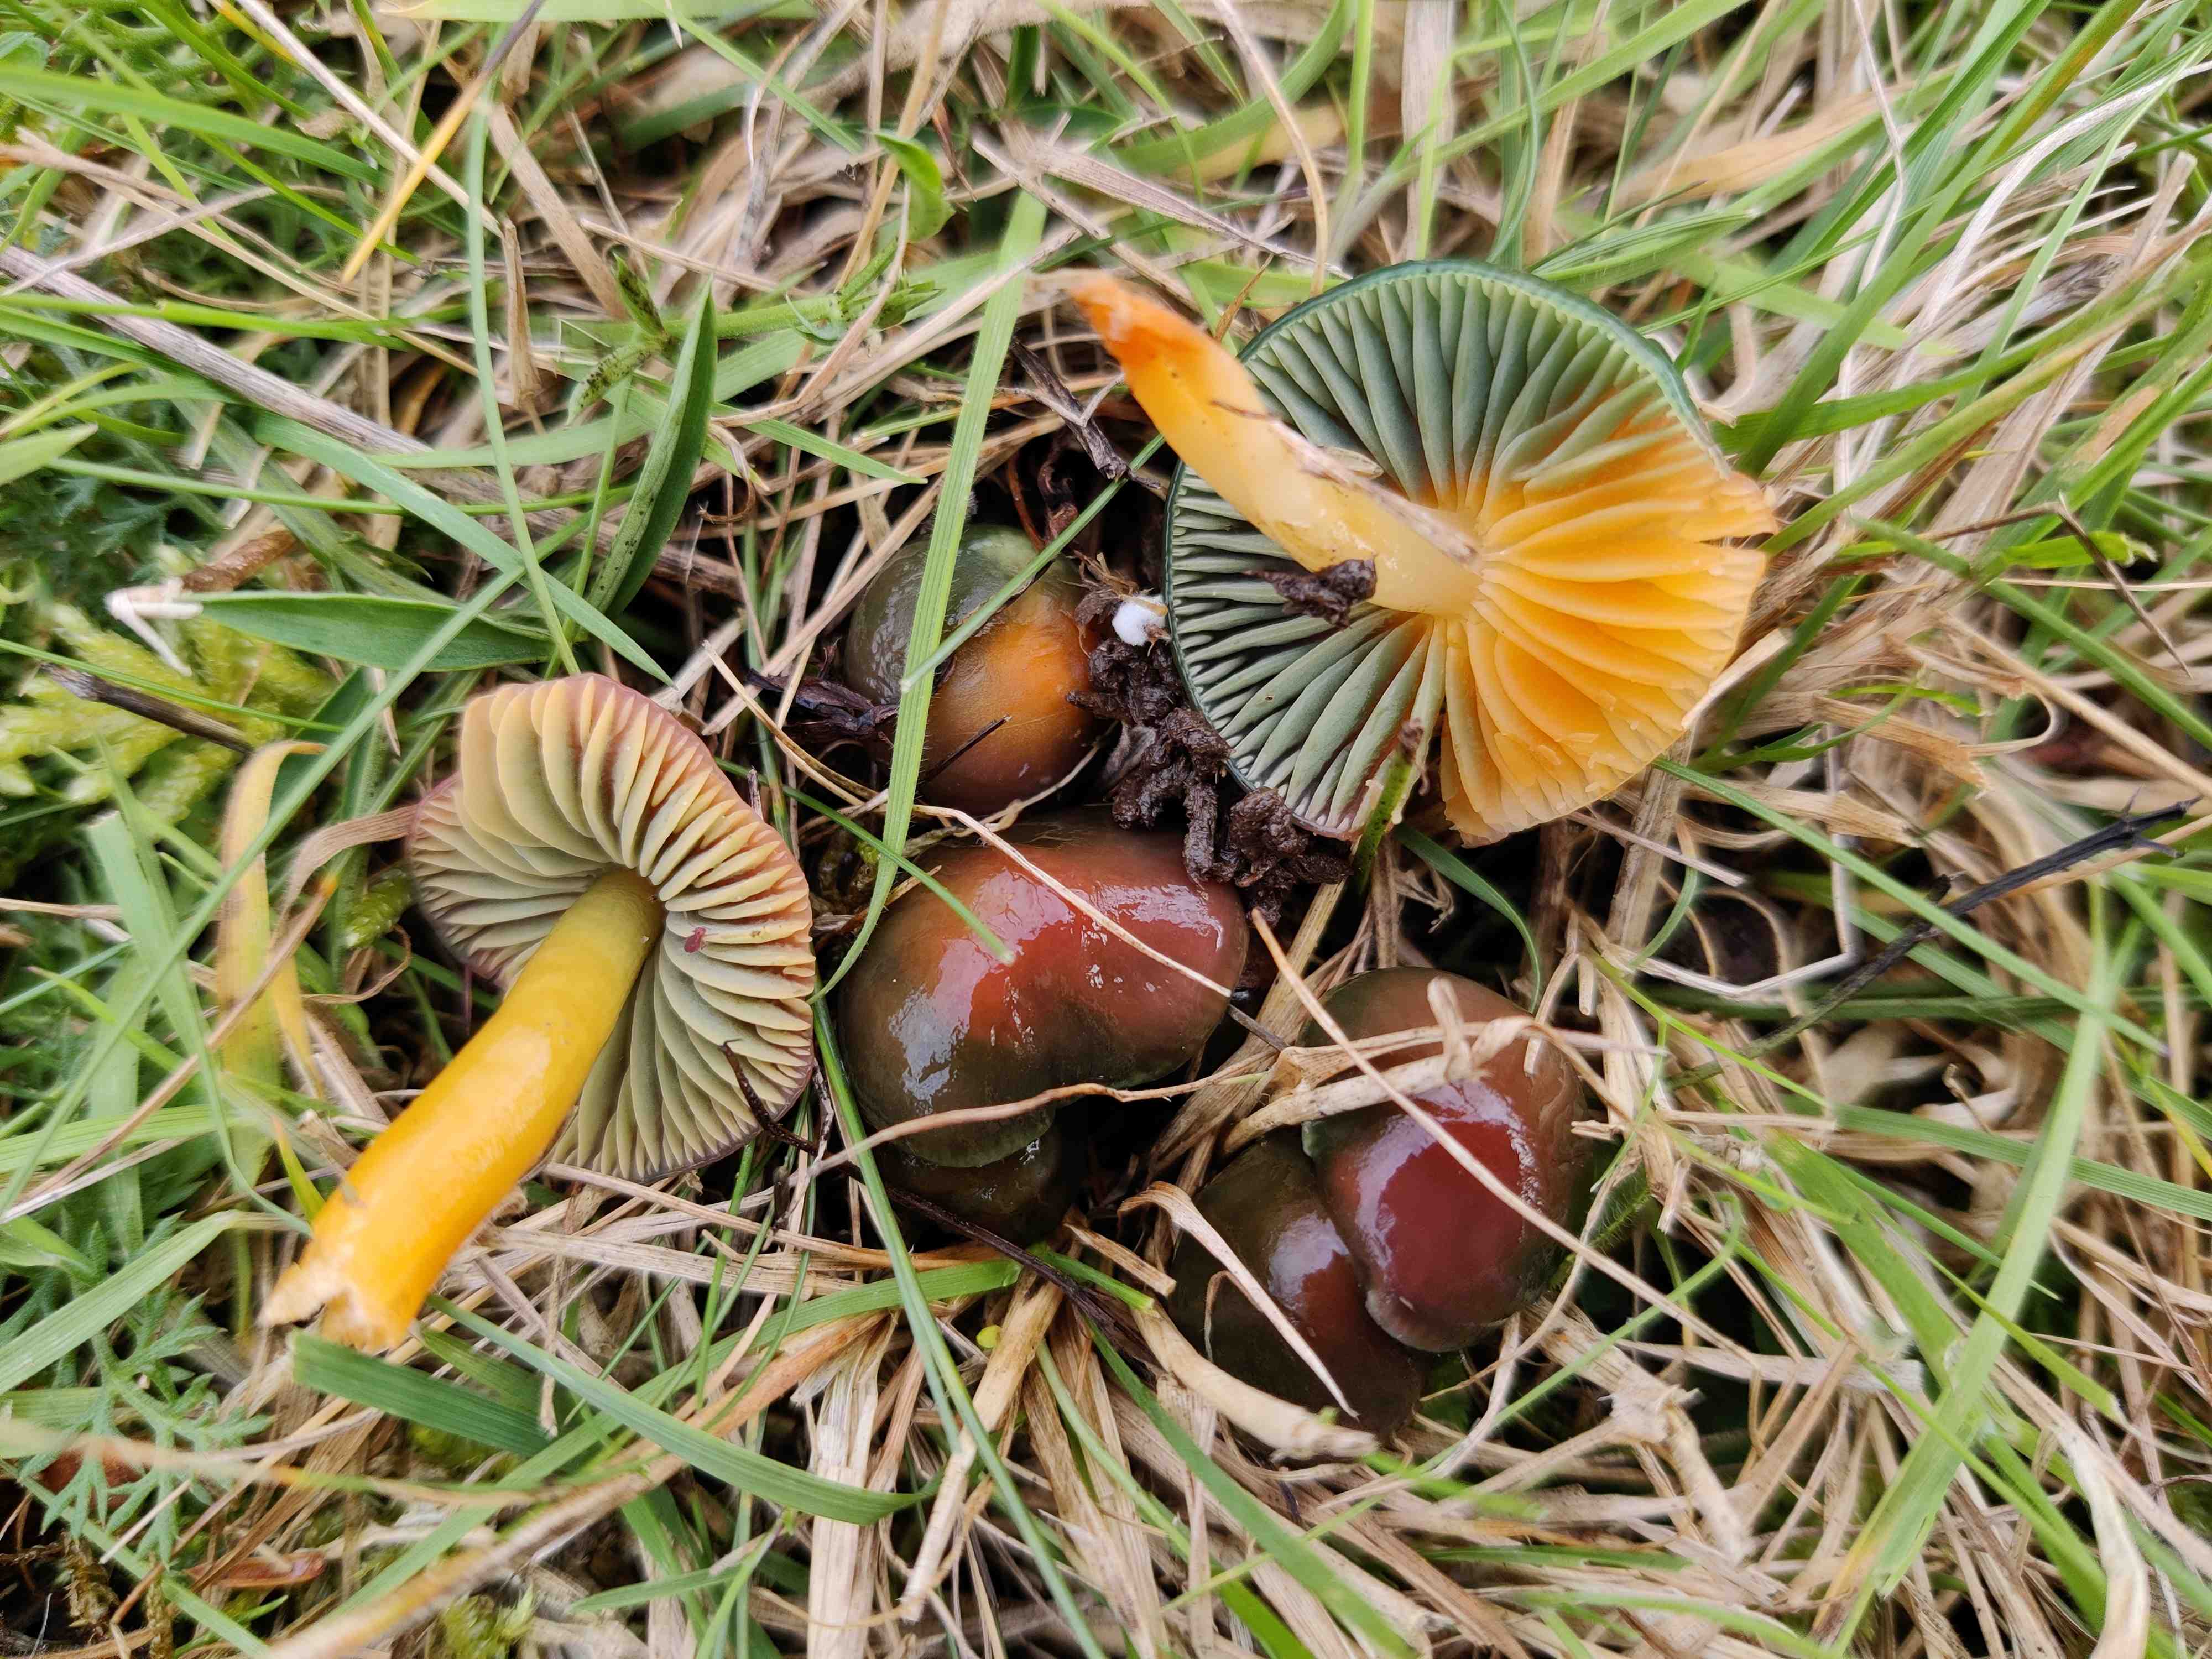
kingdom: Fungi
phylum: Basidiomycota
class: Agaricomycetes
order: Agaricales
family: Hygrophoraceae
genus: Gliophorus
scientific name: Gliophorus psittacinus
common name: papegøje-vokshat
